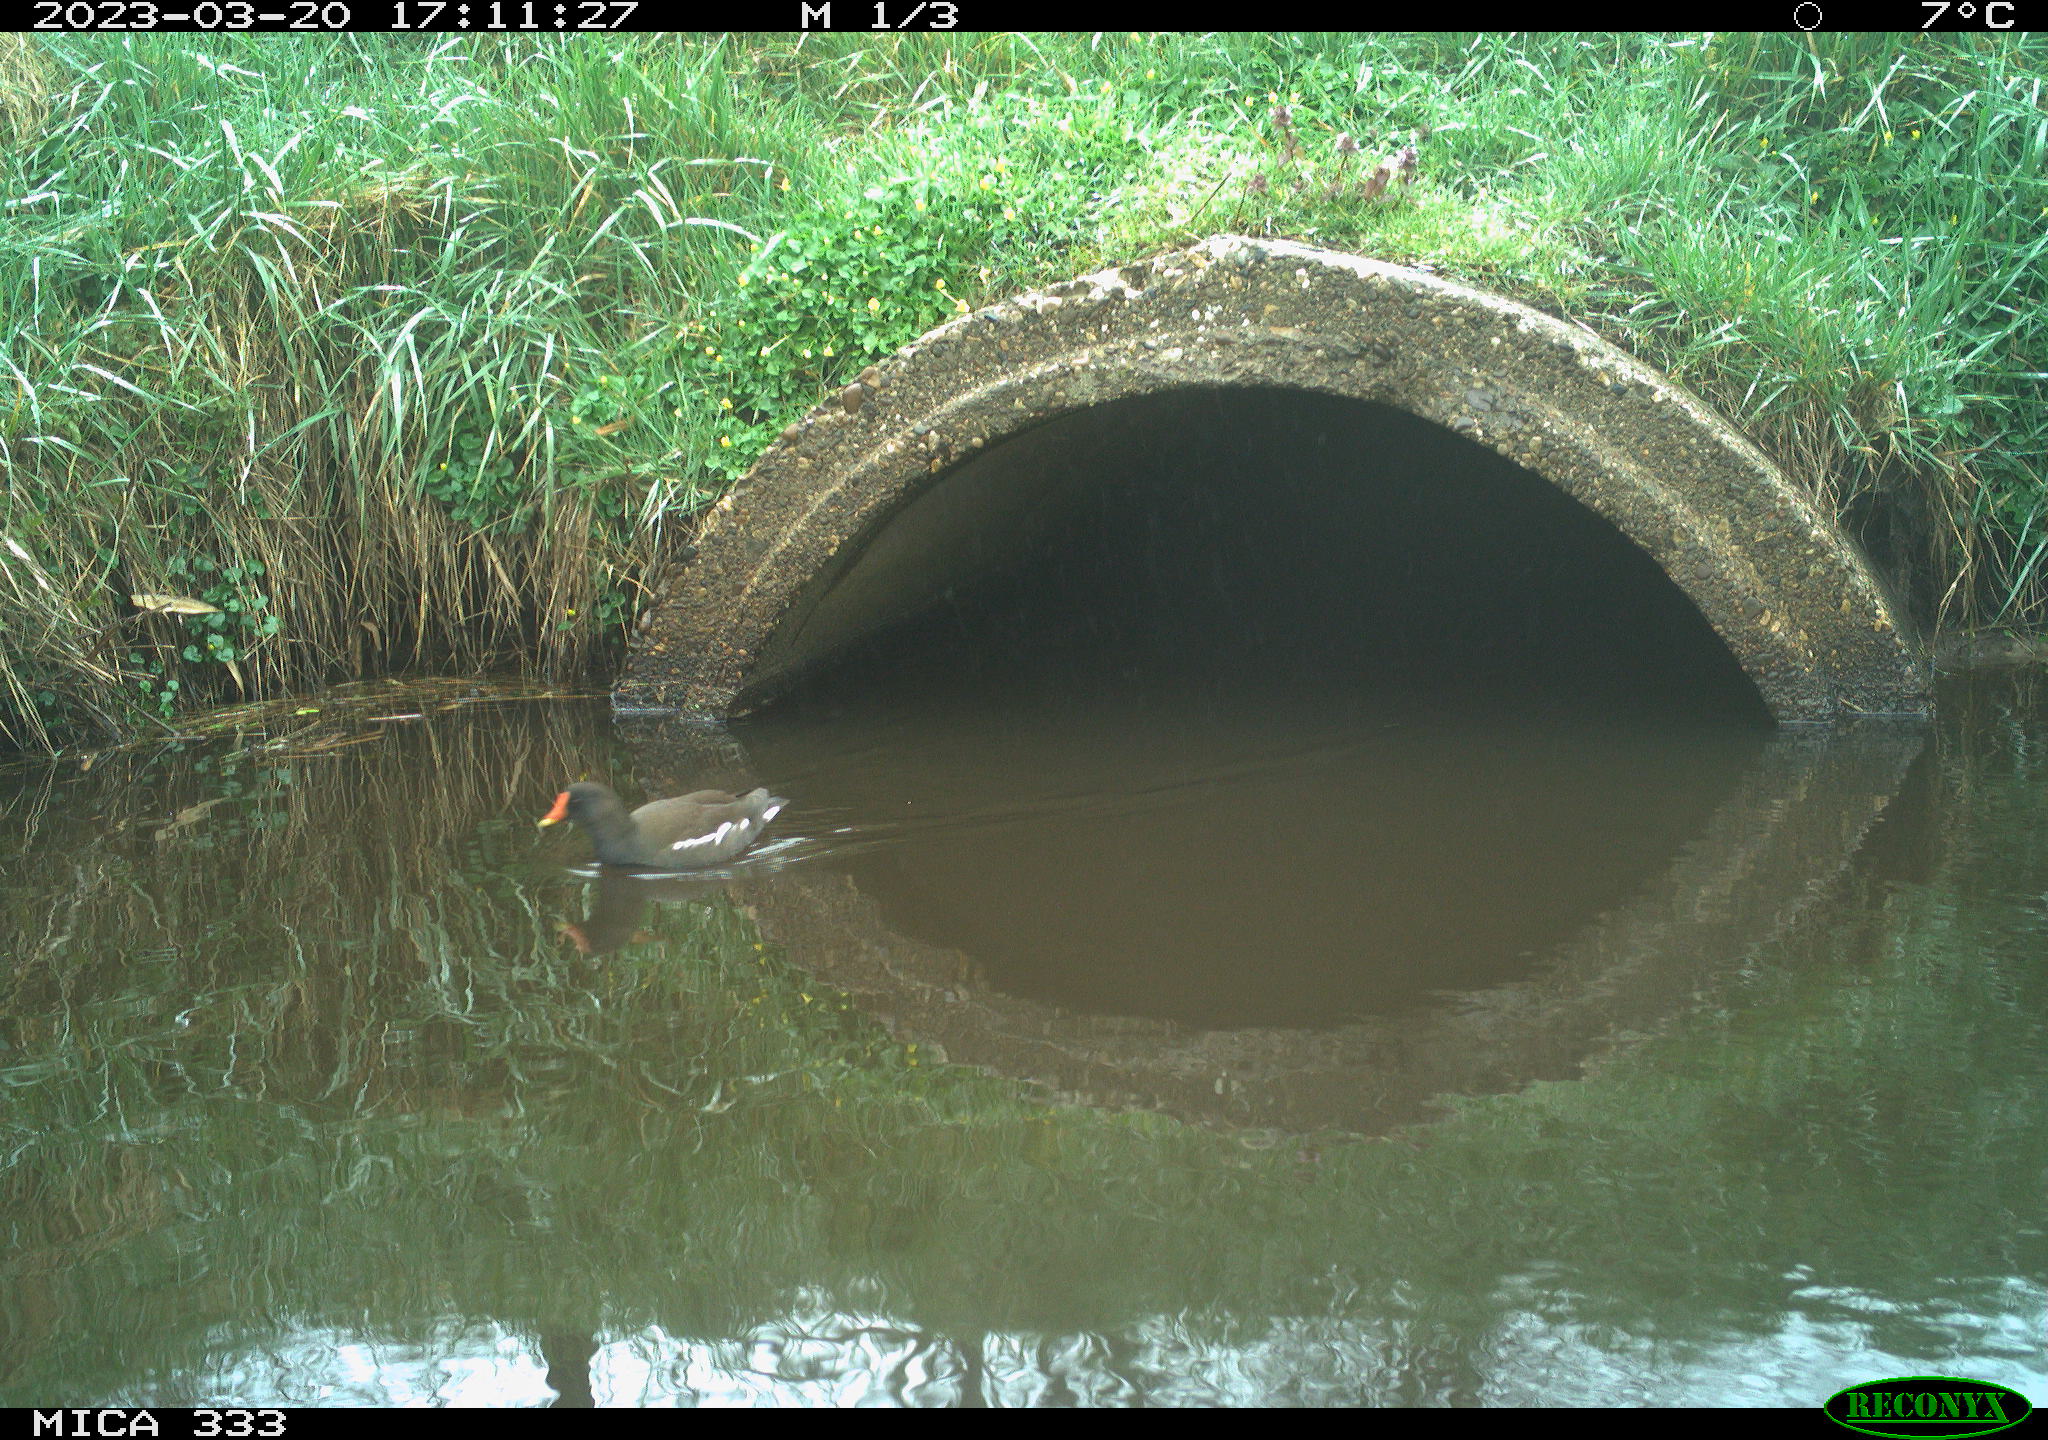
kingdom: Animalia
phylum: Chordata
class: Aves
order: Gruiformes
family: Rallidae
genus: Gallinula
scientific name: Gallinula chloropus
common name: Common moorhen
